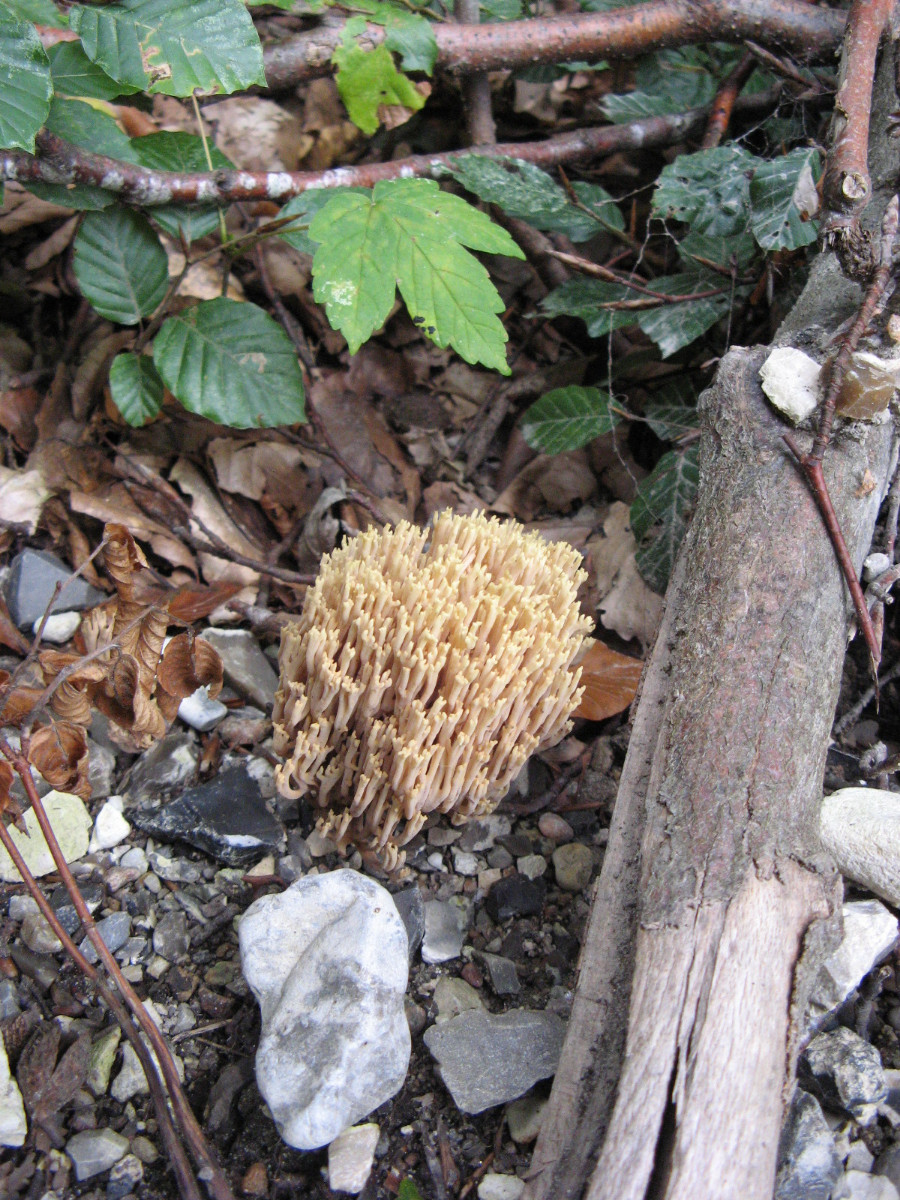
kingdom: Fungi
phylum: Basidiomycota
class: Agaricomycetes
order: Gomphales
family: Gomphaceae
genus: Ramaria
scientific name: Ramaria stricta
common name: rank koralsvamp
